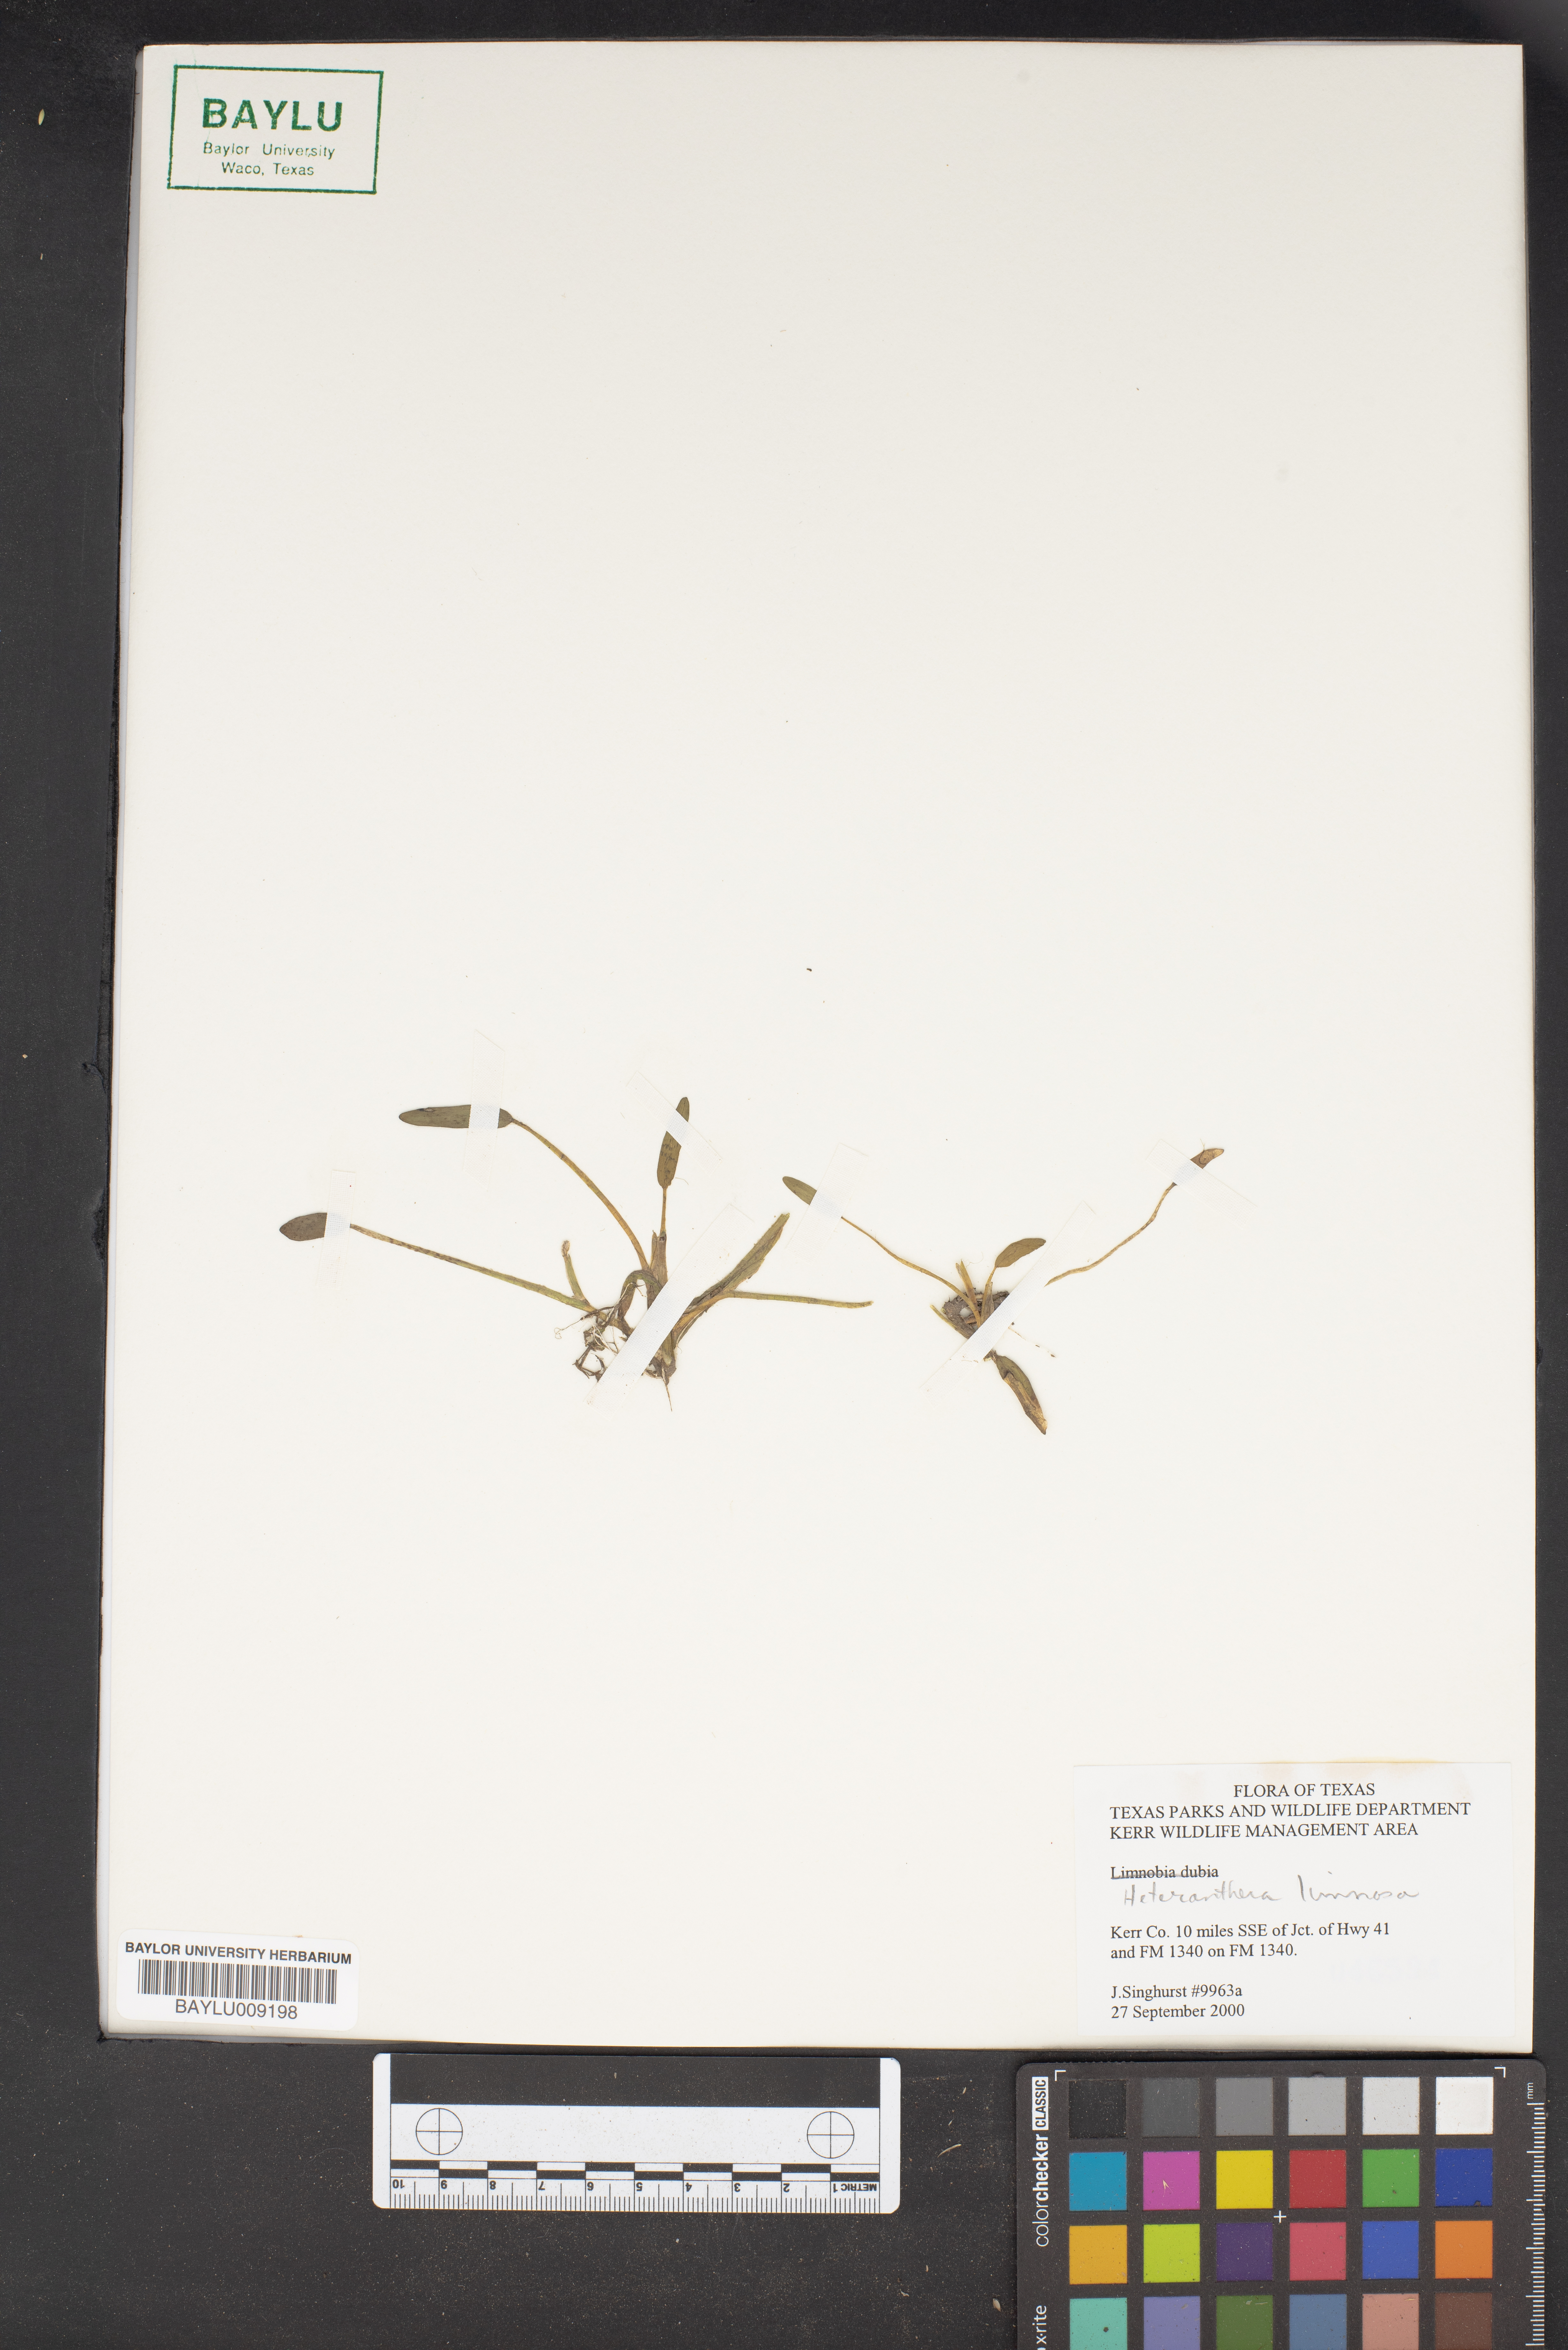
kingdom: Plantae
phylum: Tracheophyta
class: Liliopsida
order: Commelinales
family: Pontederiaceae
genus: Heteranthera
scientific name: Heteranthera limosa
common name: Blue mud-plantain
